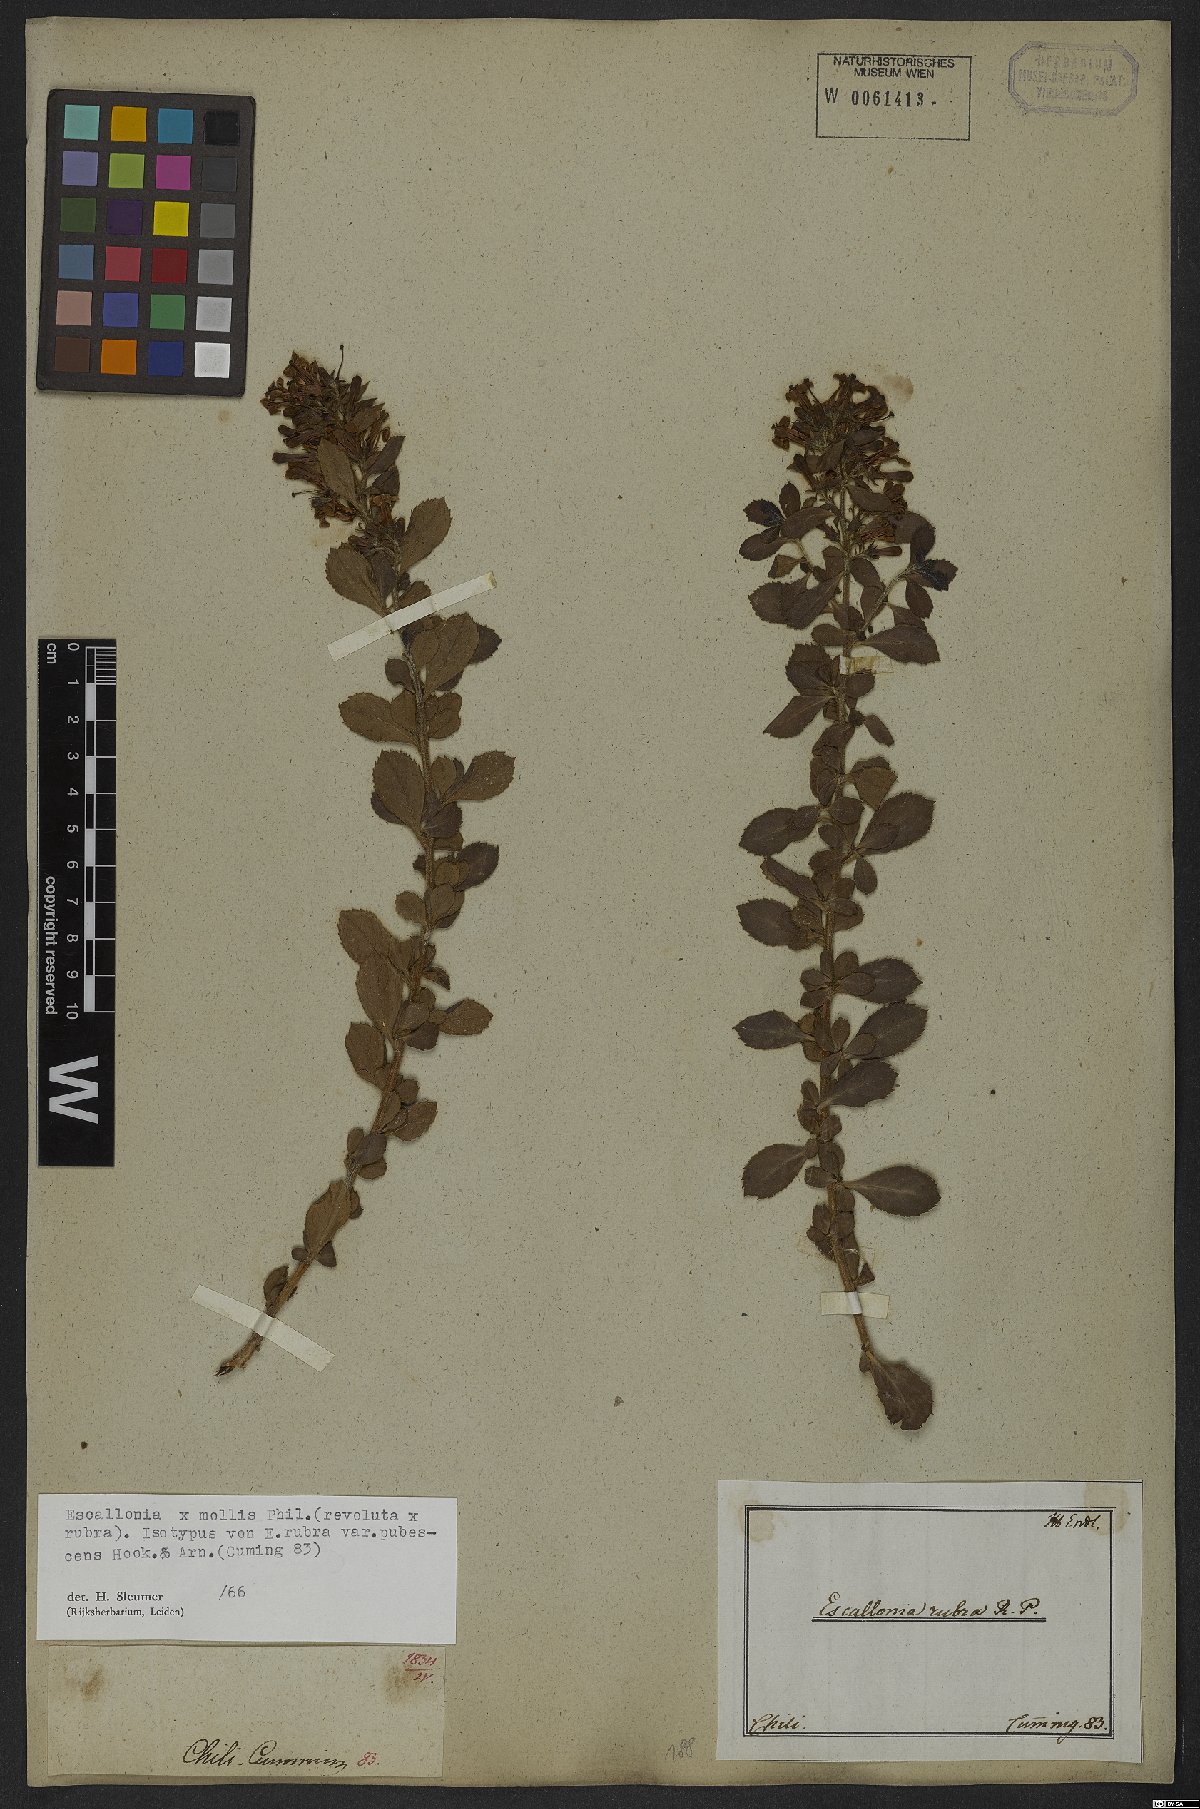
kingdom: Plantae
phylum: Tracheophyta
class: Magnoliopsida
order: Escalloniales
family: Escalloniaceae
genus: Escallonia
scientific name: Escallonia mollis
